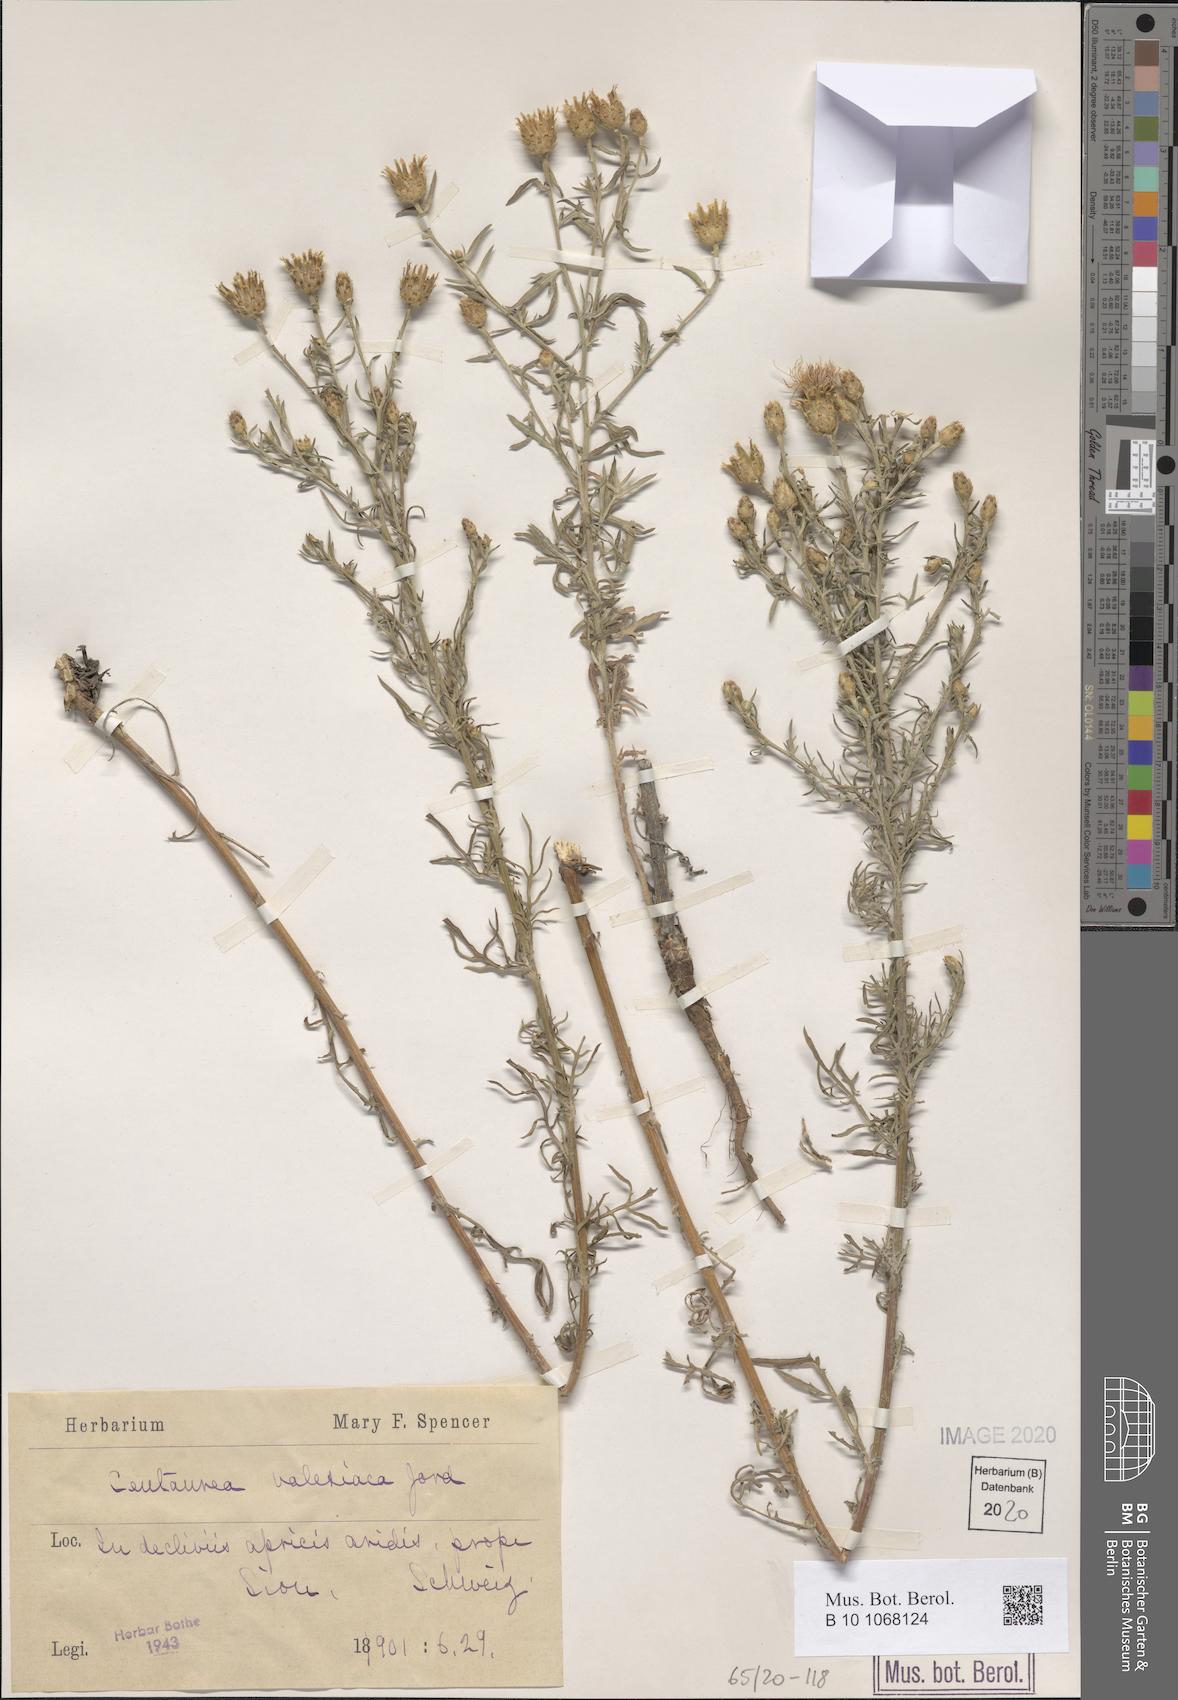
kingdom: Plantae
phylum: Tracheophyta
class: Magnoliopsida
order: Asterales
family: Asteraceae
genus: Centaurea
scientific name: Centaurea valesiaca
